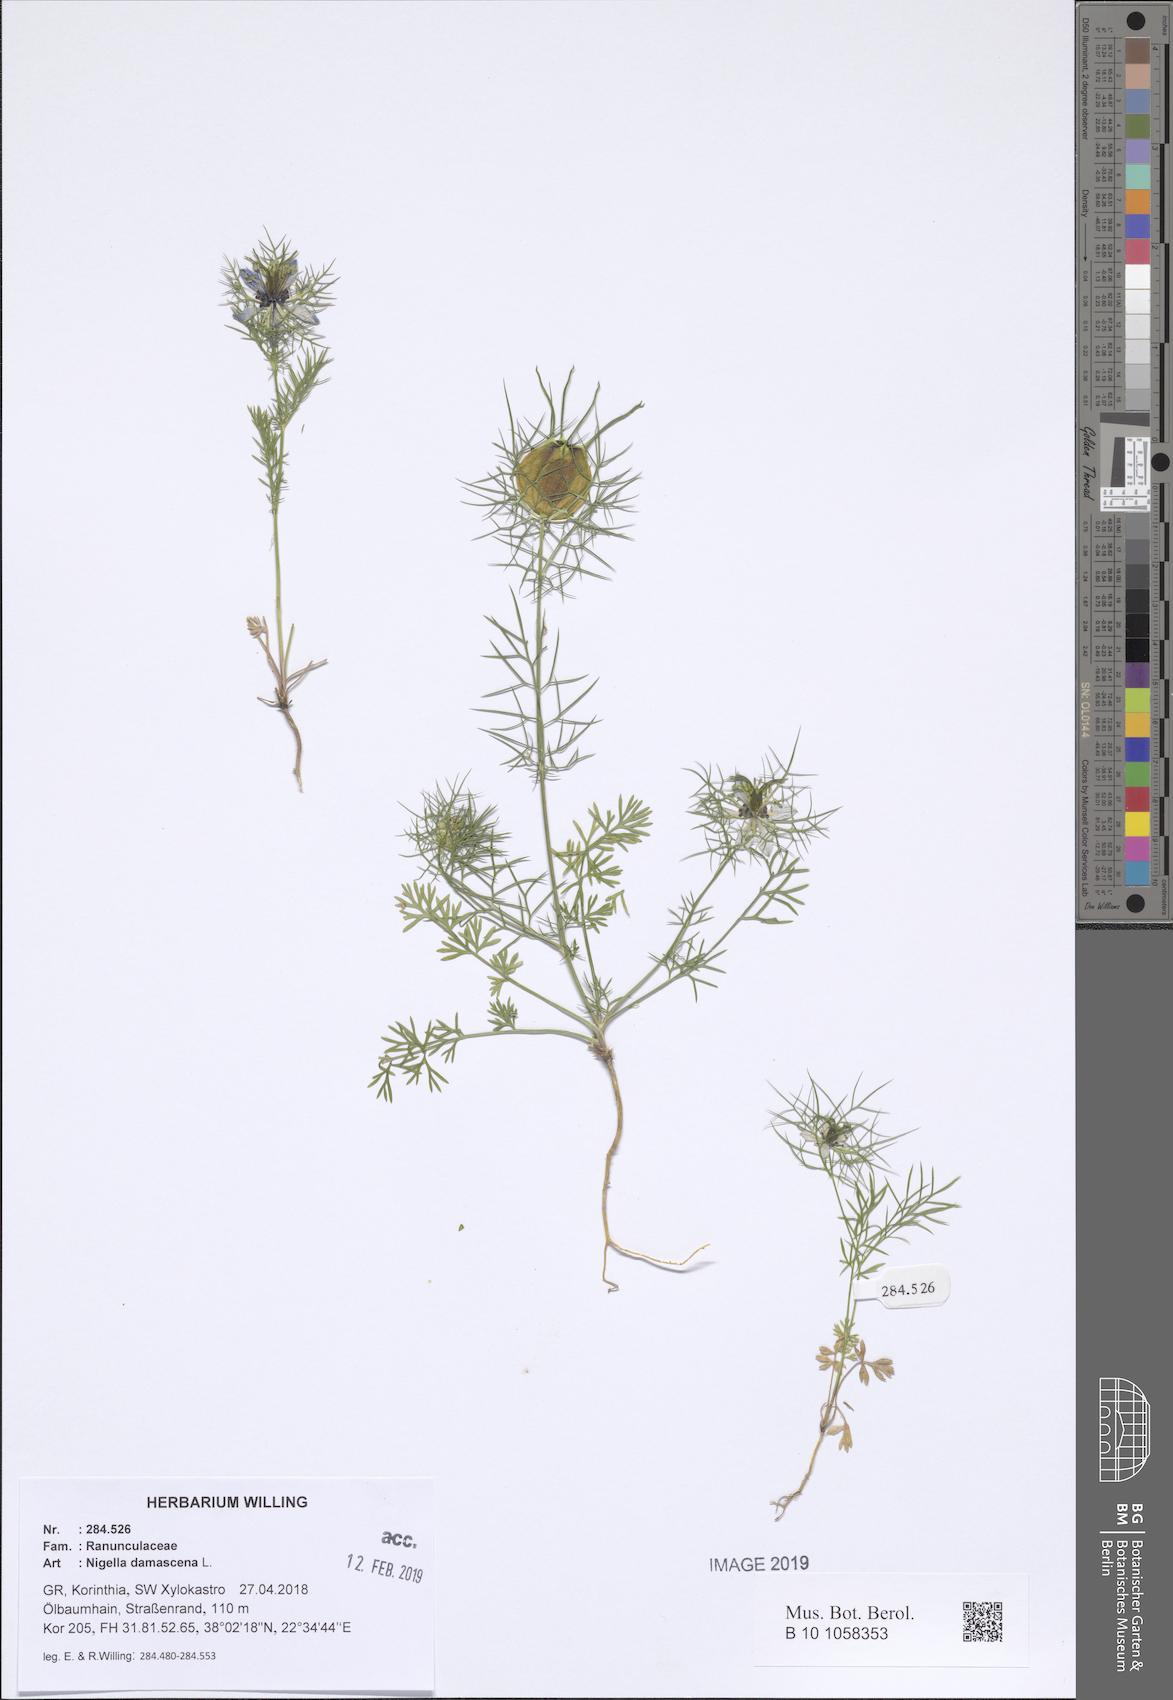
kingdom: Plantae
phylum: Tracheophyta
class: Magnoliopsida
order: Ranunculales
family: Ranunculaceae
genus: Nigella
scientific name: Nigella damascena
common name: Love-in-a-mist
